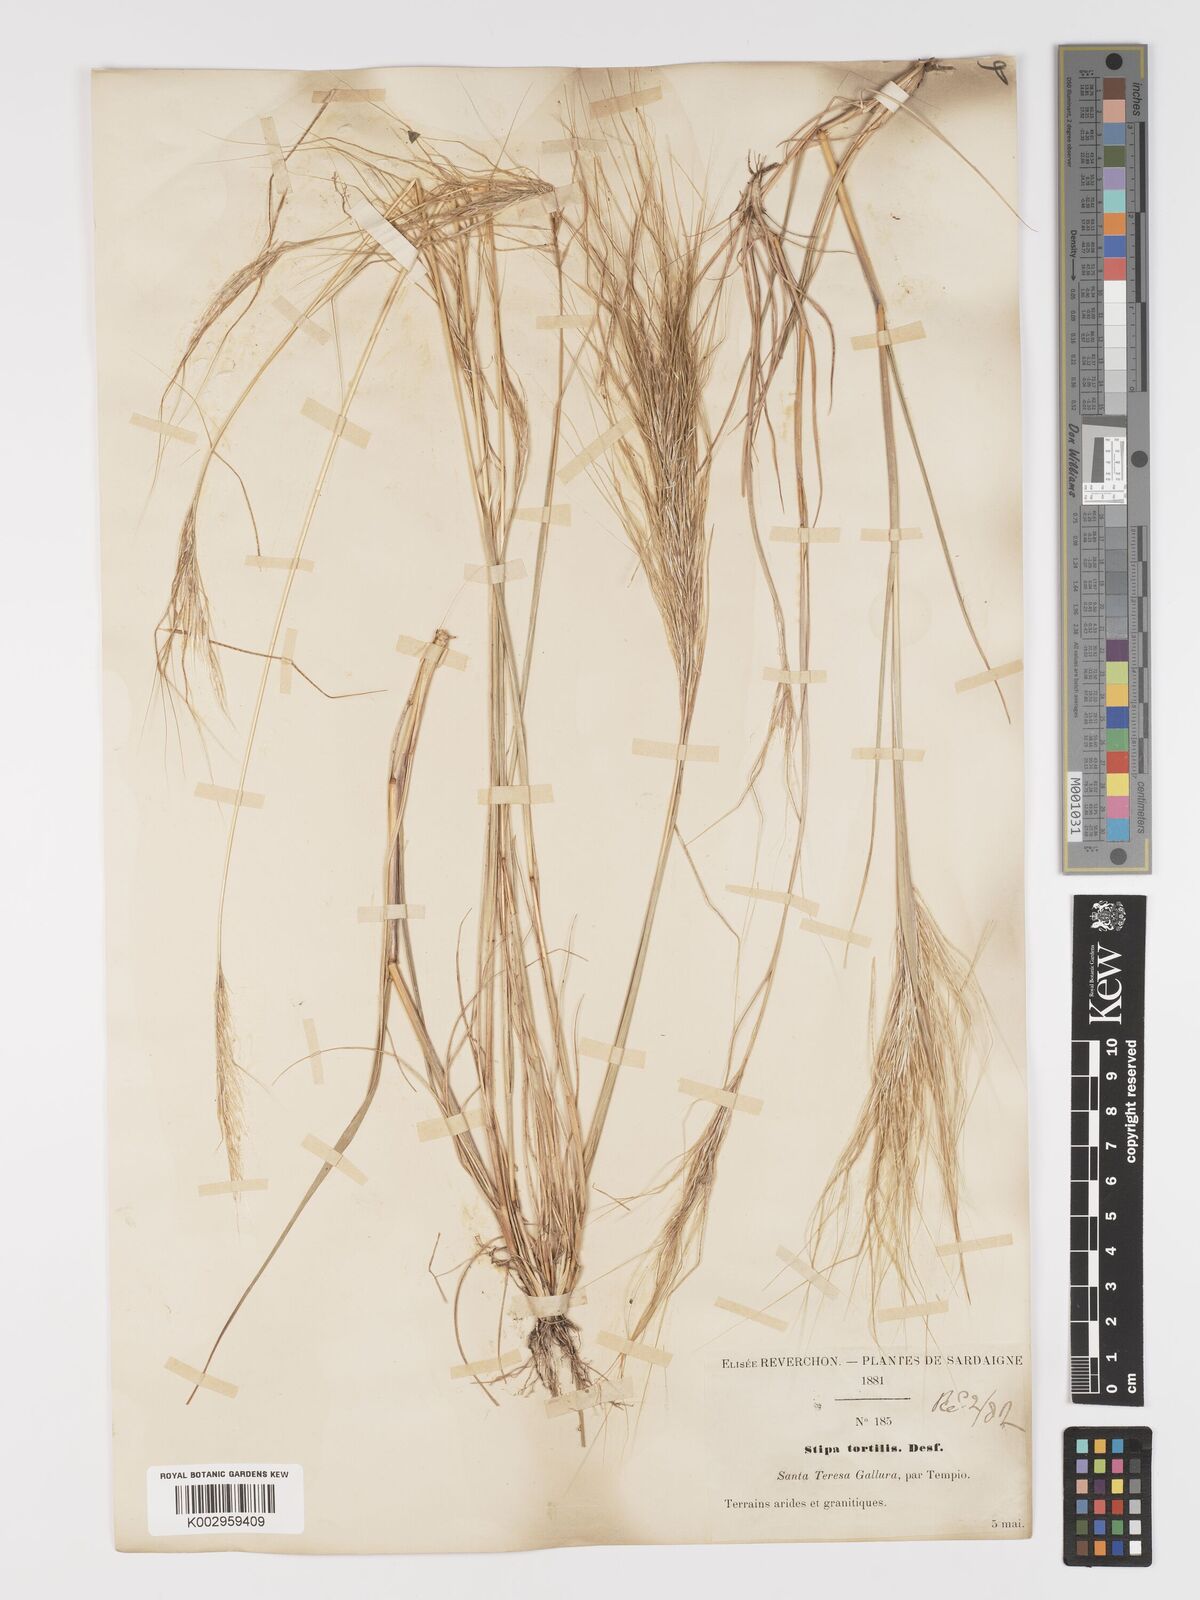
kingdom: Plantae
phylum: Tracheophyta
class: Liliopsida
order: Poales
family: Poaceae
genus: Stipa
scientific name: Stipa
